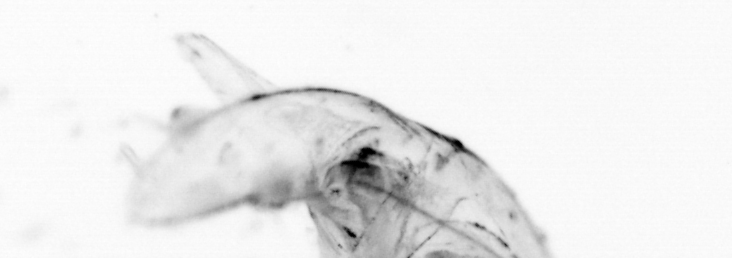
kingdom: Animalia
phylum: Chordata
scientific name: Chordata
